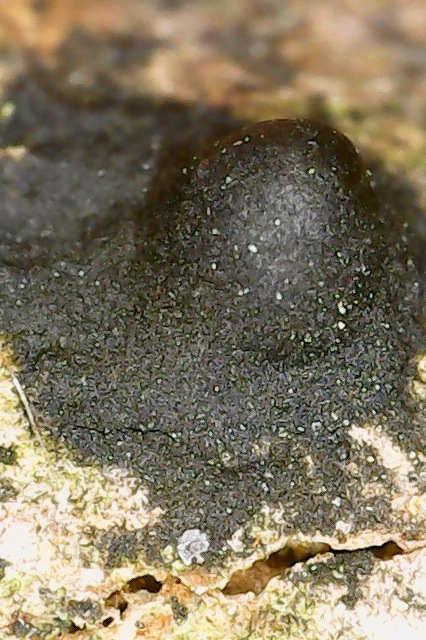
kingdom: Fungi
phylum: Ascomycota
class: Sordariomycetes
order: Diaporthales
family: Juglanconidaceae
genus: Juglanconis
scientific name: Juglanconis pterocaryae
